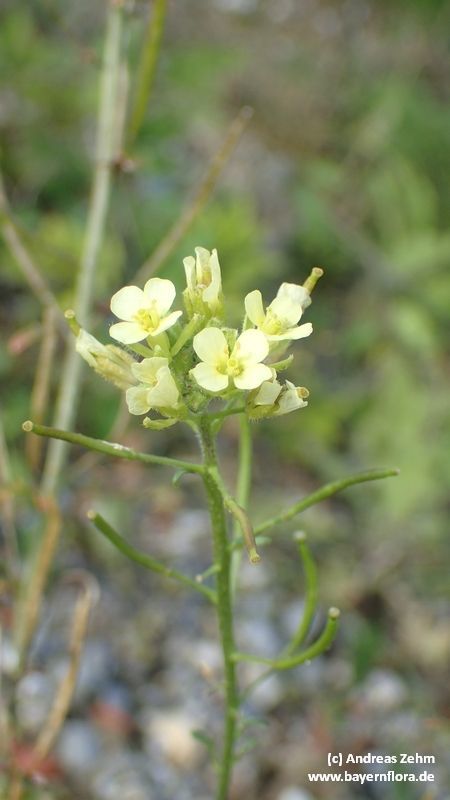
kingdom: Plantae
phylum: Tracheophyta
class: Magnoliopsida
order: Brassicales
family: Brassicaceae
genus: Erucastrum
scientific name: Erucastrum nasturtiifolium
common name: Watercress-leaf rocket
